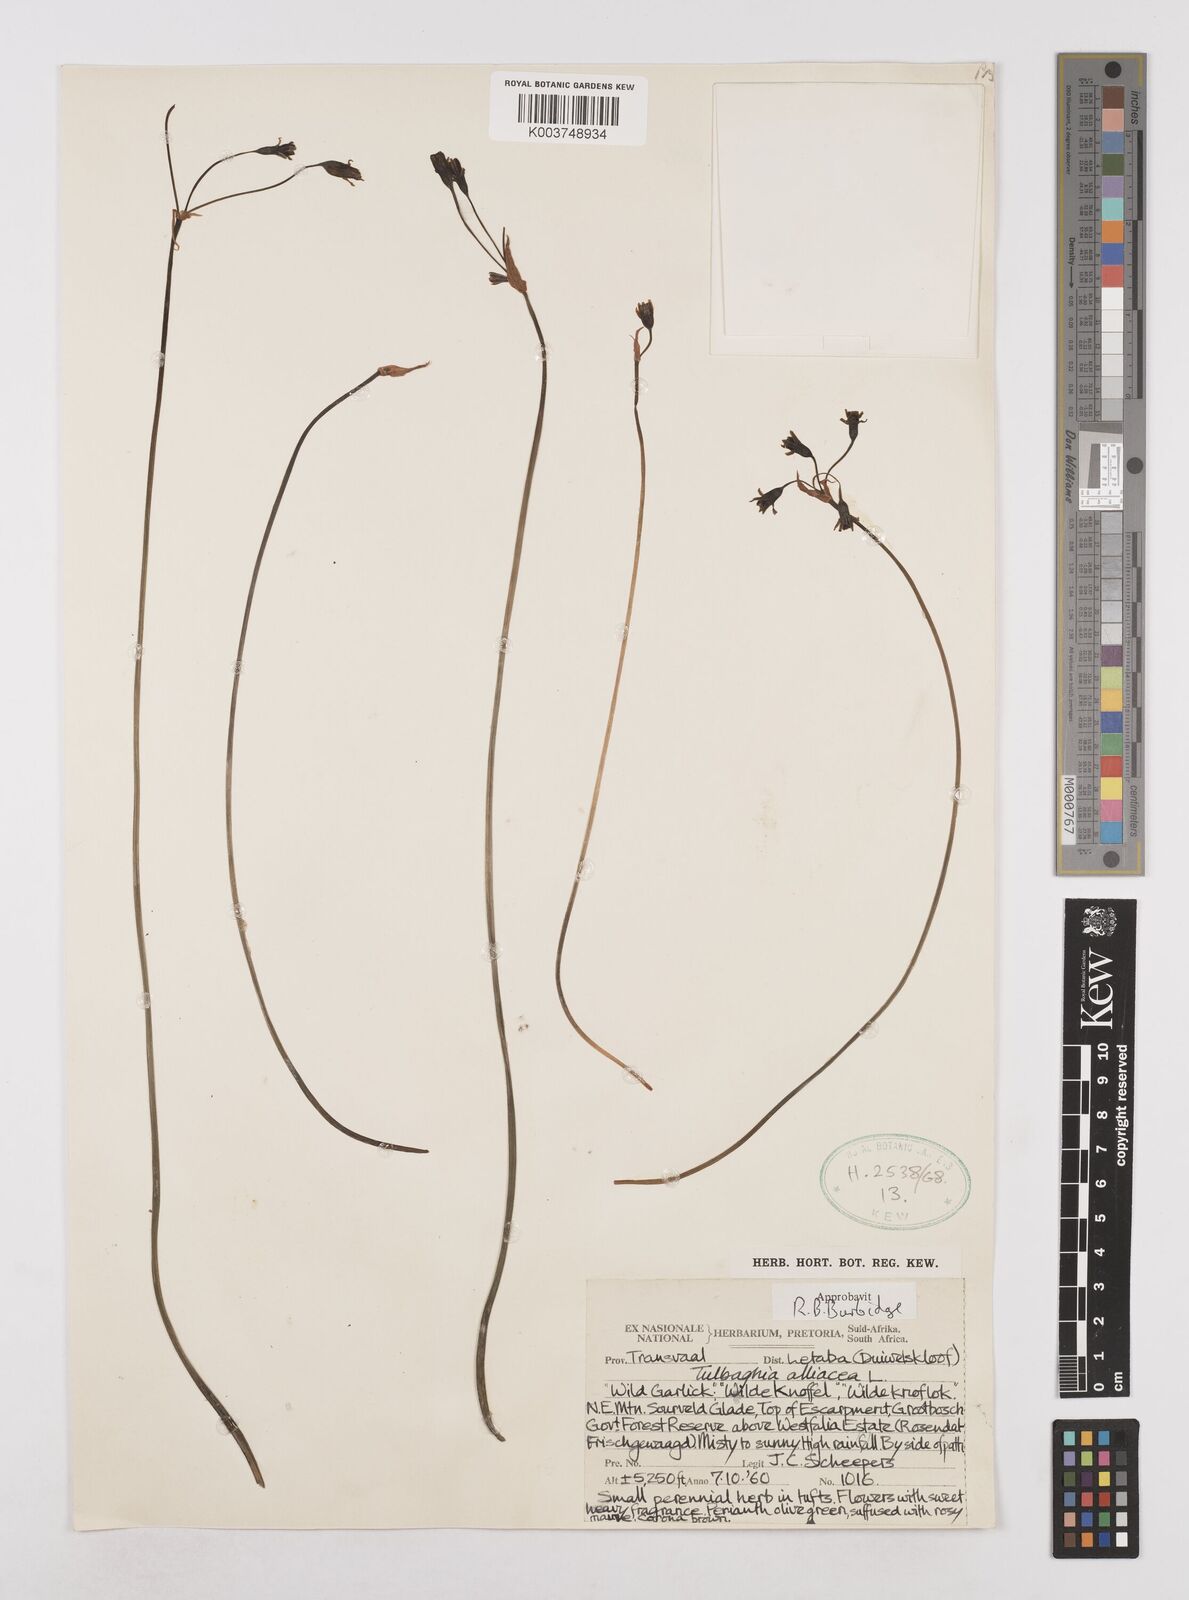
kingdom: Plantae
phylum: Tracheophyta
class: Liliopsida
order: Asparagales
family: Amaryllidaceae
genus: Tulbaghia
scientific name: Tulbaghia alliacea
